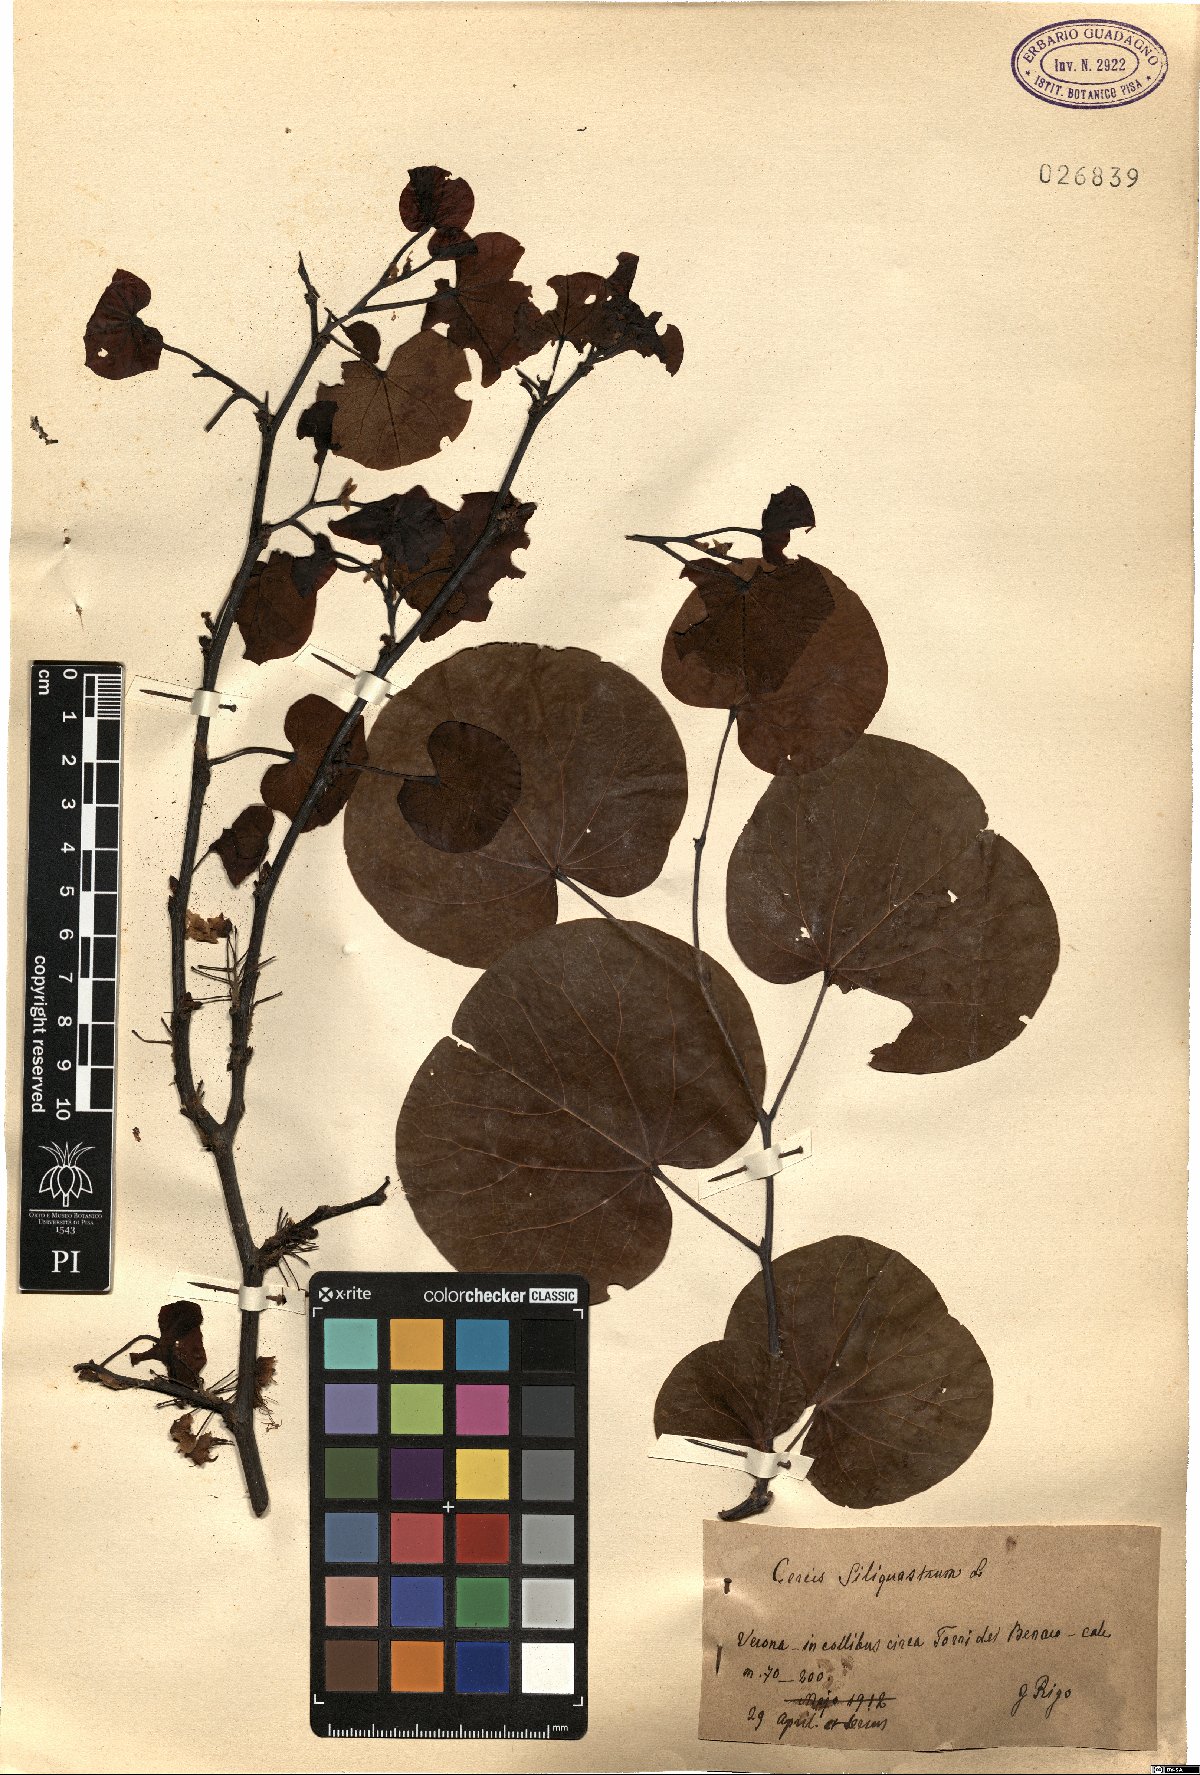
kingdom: Plantae
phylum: Tracheophyta
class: Magnoliopsida
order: Fabales
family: Fabaceae
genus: Cercis
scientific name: Cercis siliquastrum
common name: Judas tree
